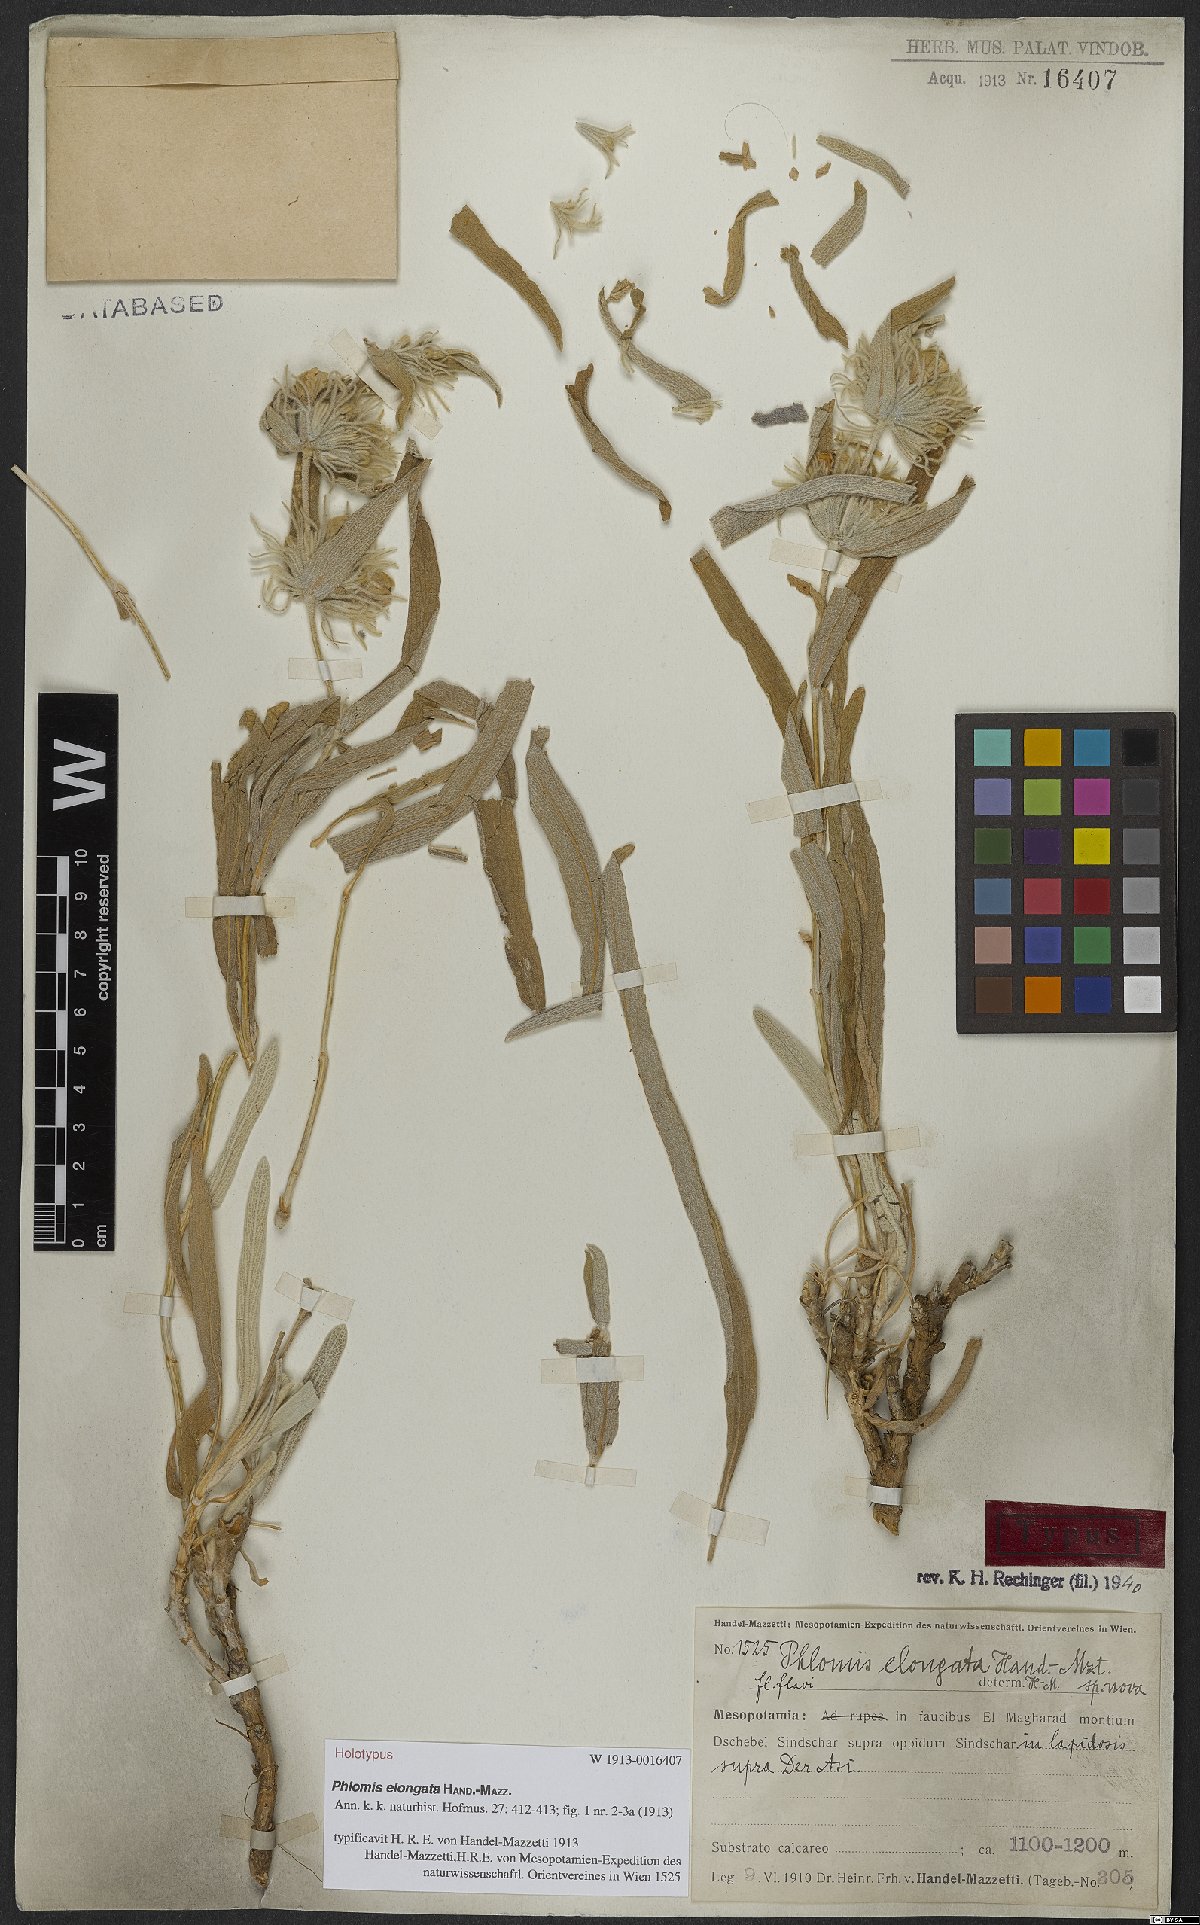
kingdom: Plantae
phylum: Tracheophyta
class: Magnoliopsida
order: Lamiales
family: Lamiaceae
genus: Phlomis
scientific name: Phlomis elongata
